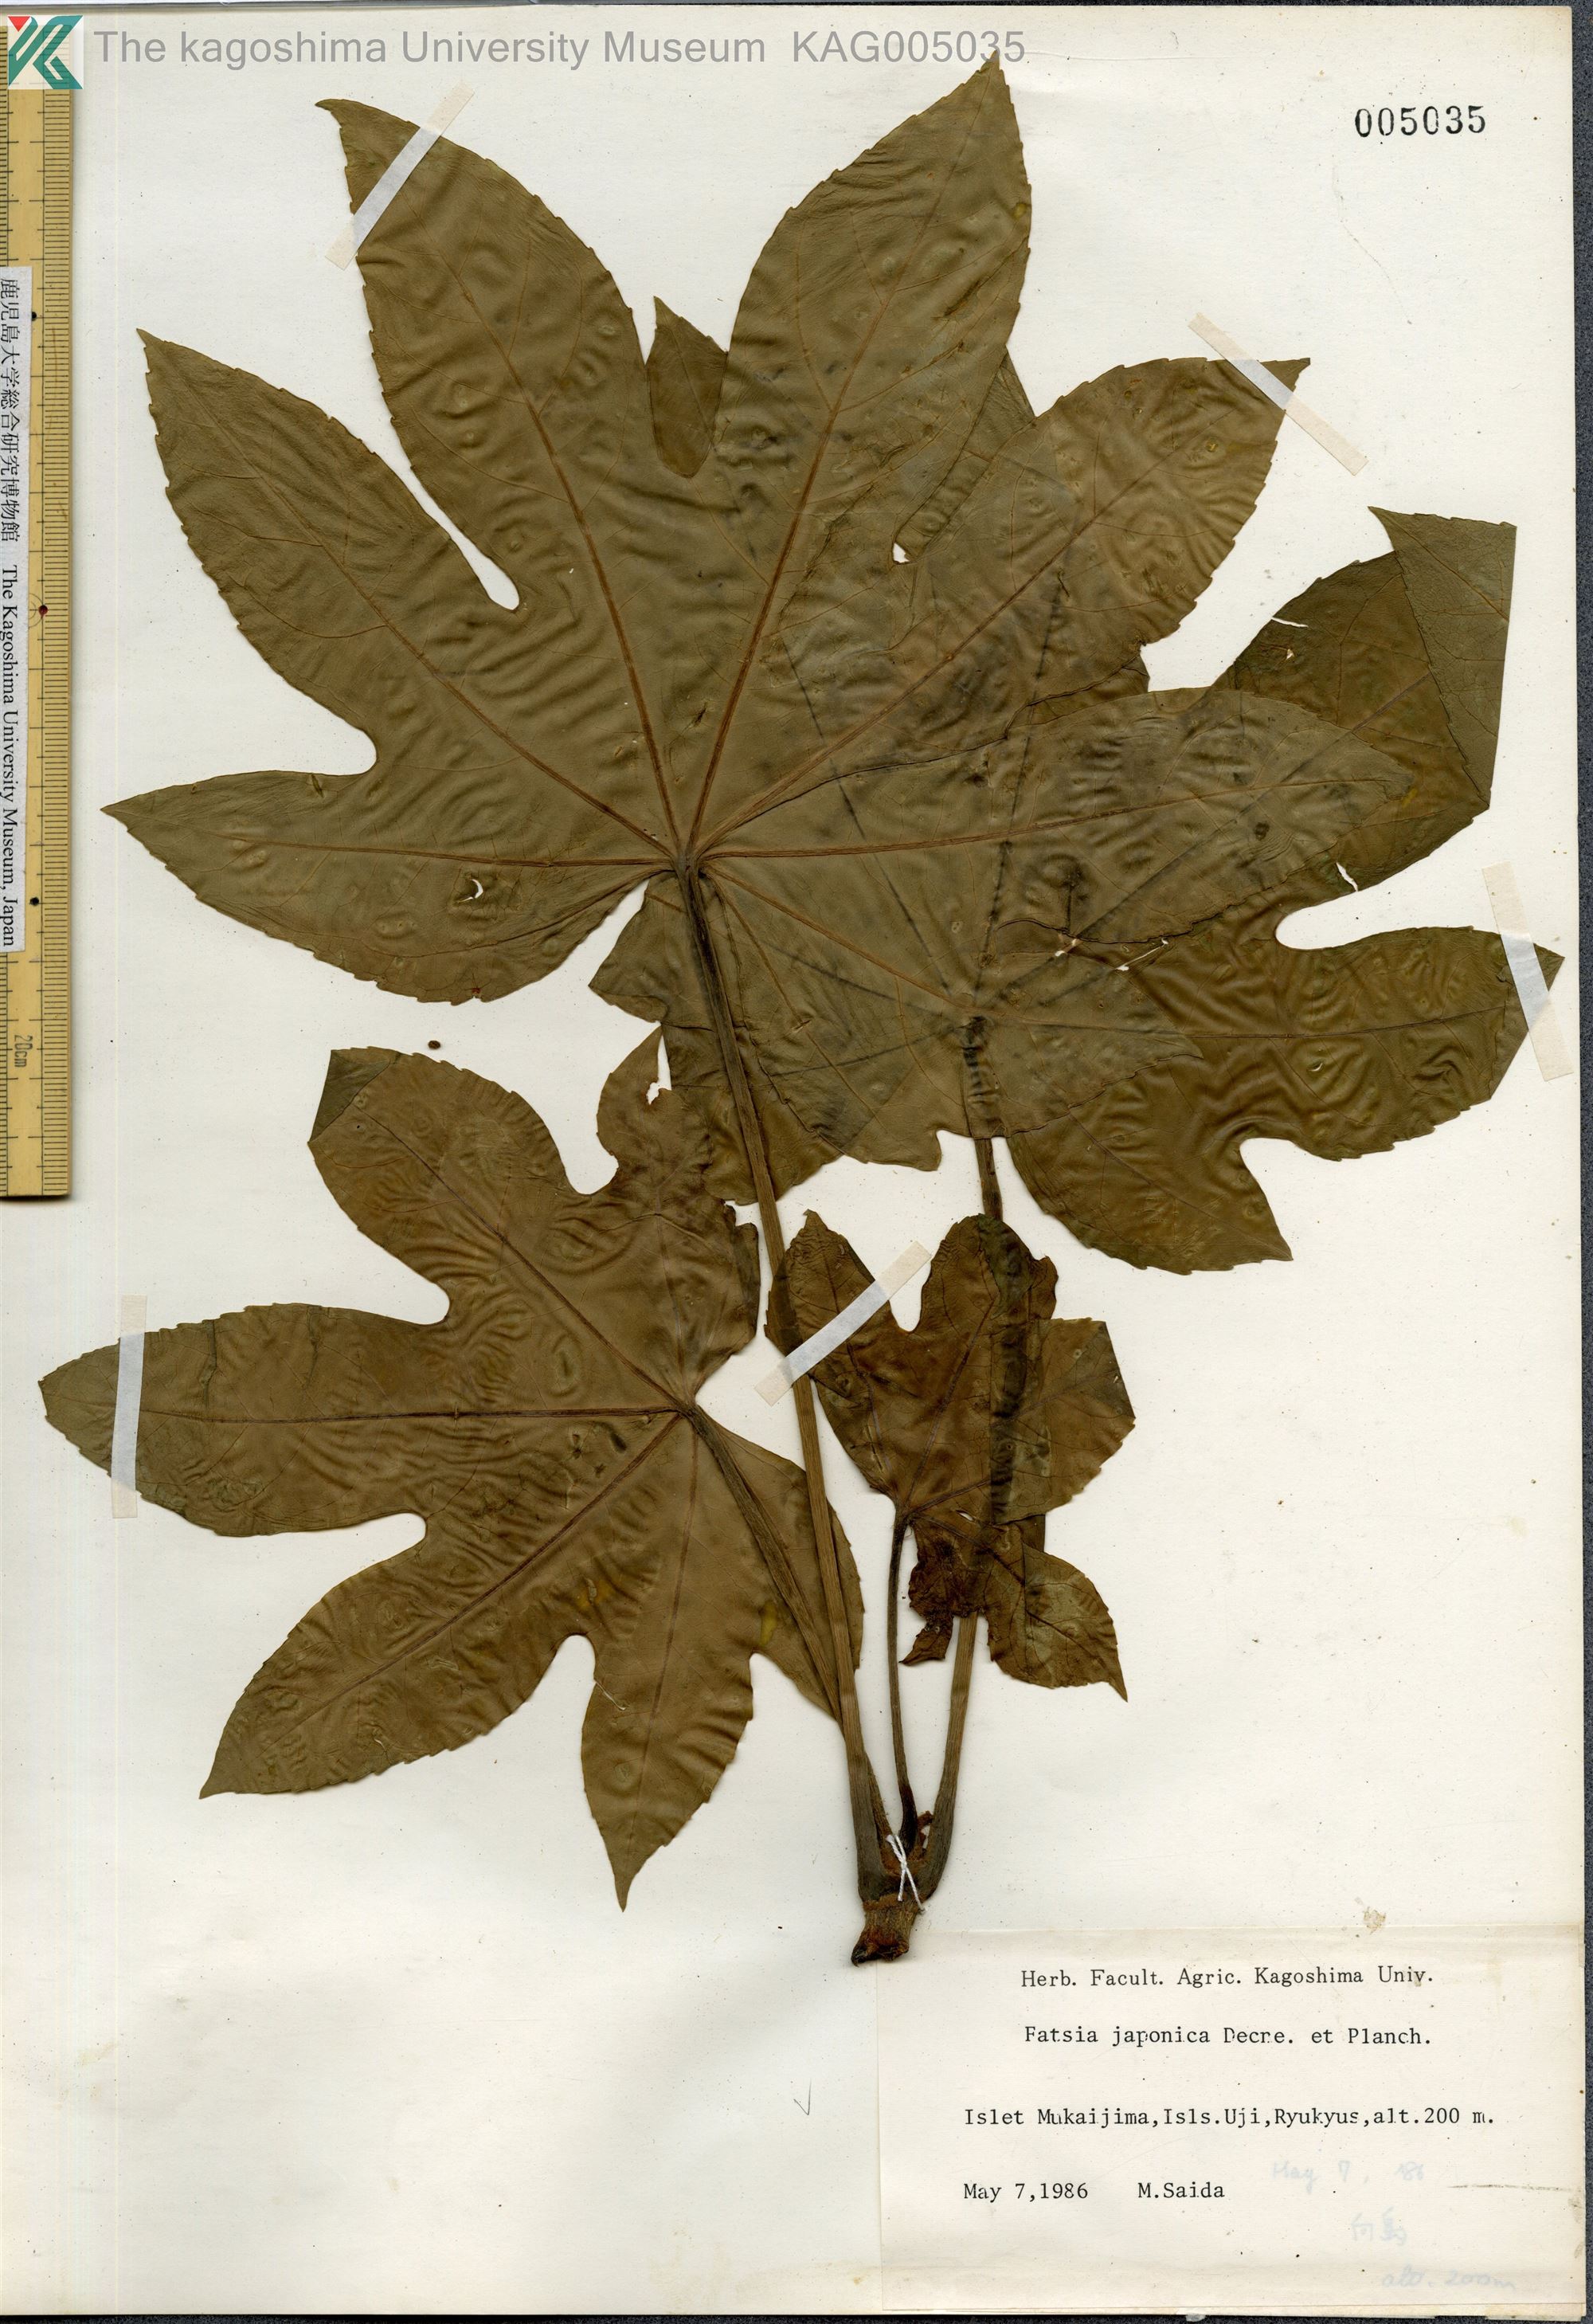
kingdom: Plantae
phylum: Tracheophyta
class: Magnoliopsida
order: Apiales
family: Araliaceae
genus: Fatsia
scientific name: Fatsia japonica
